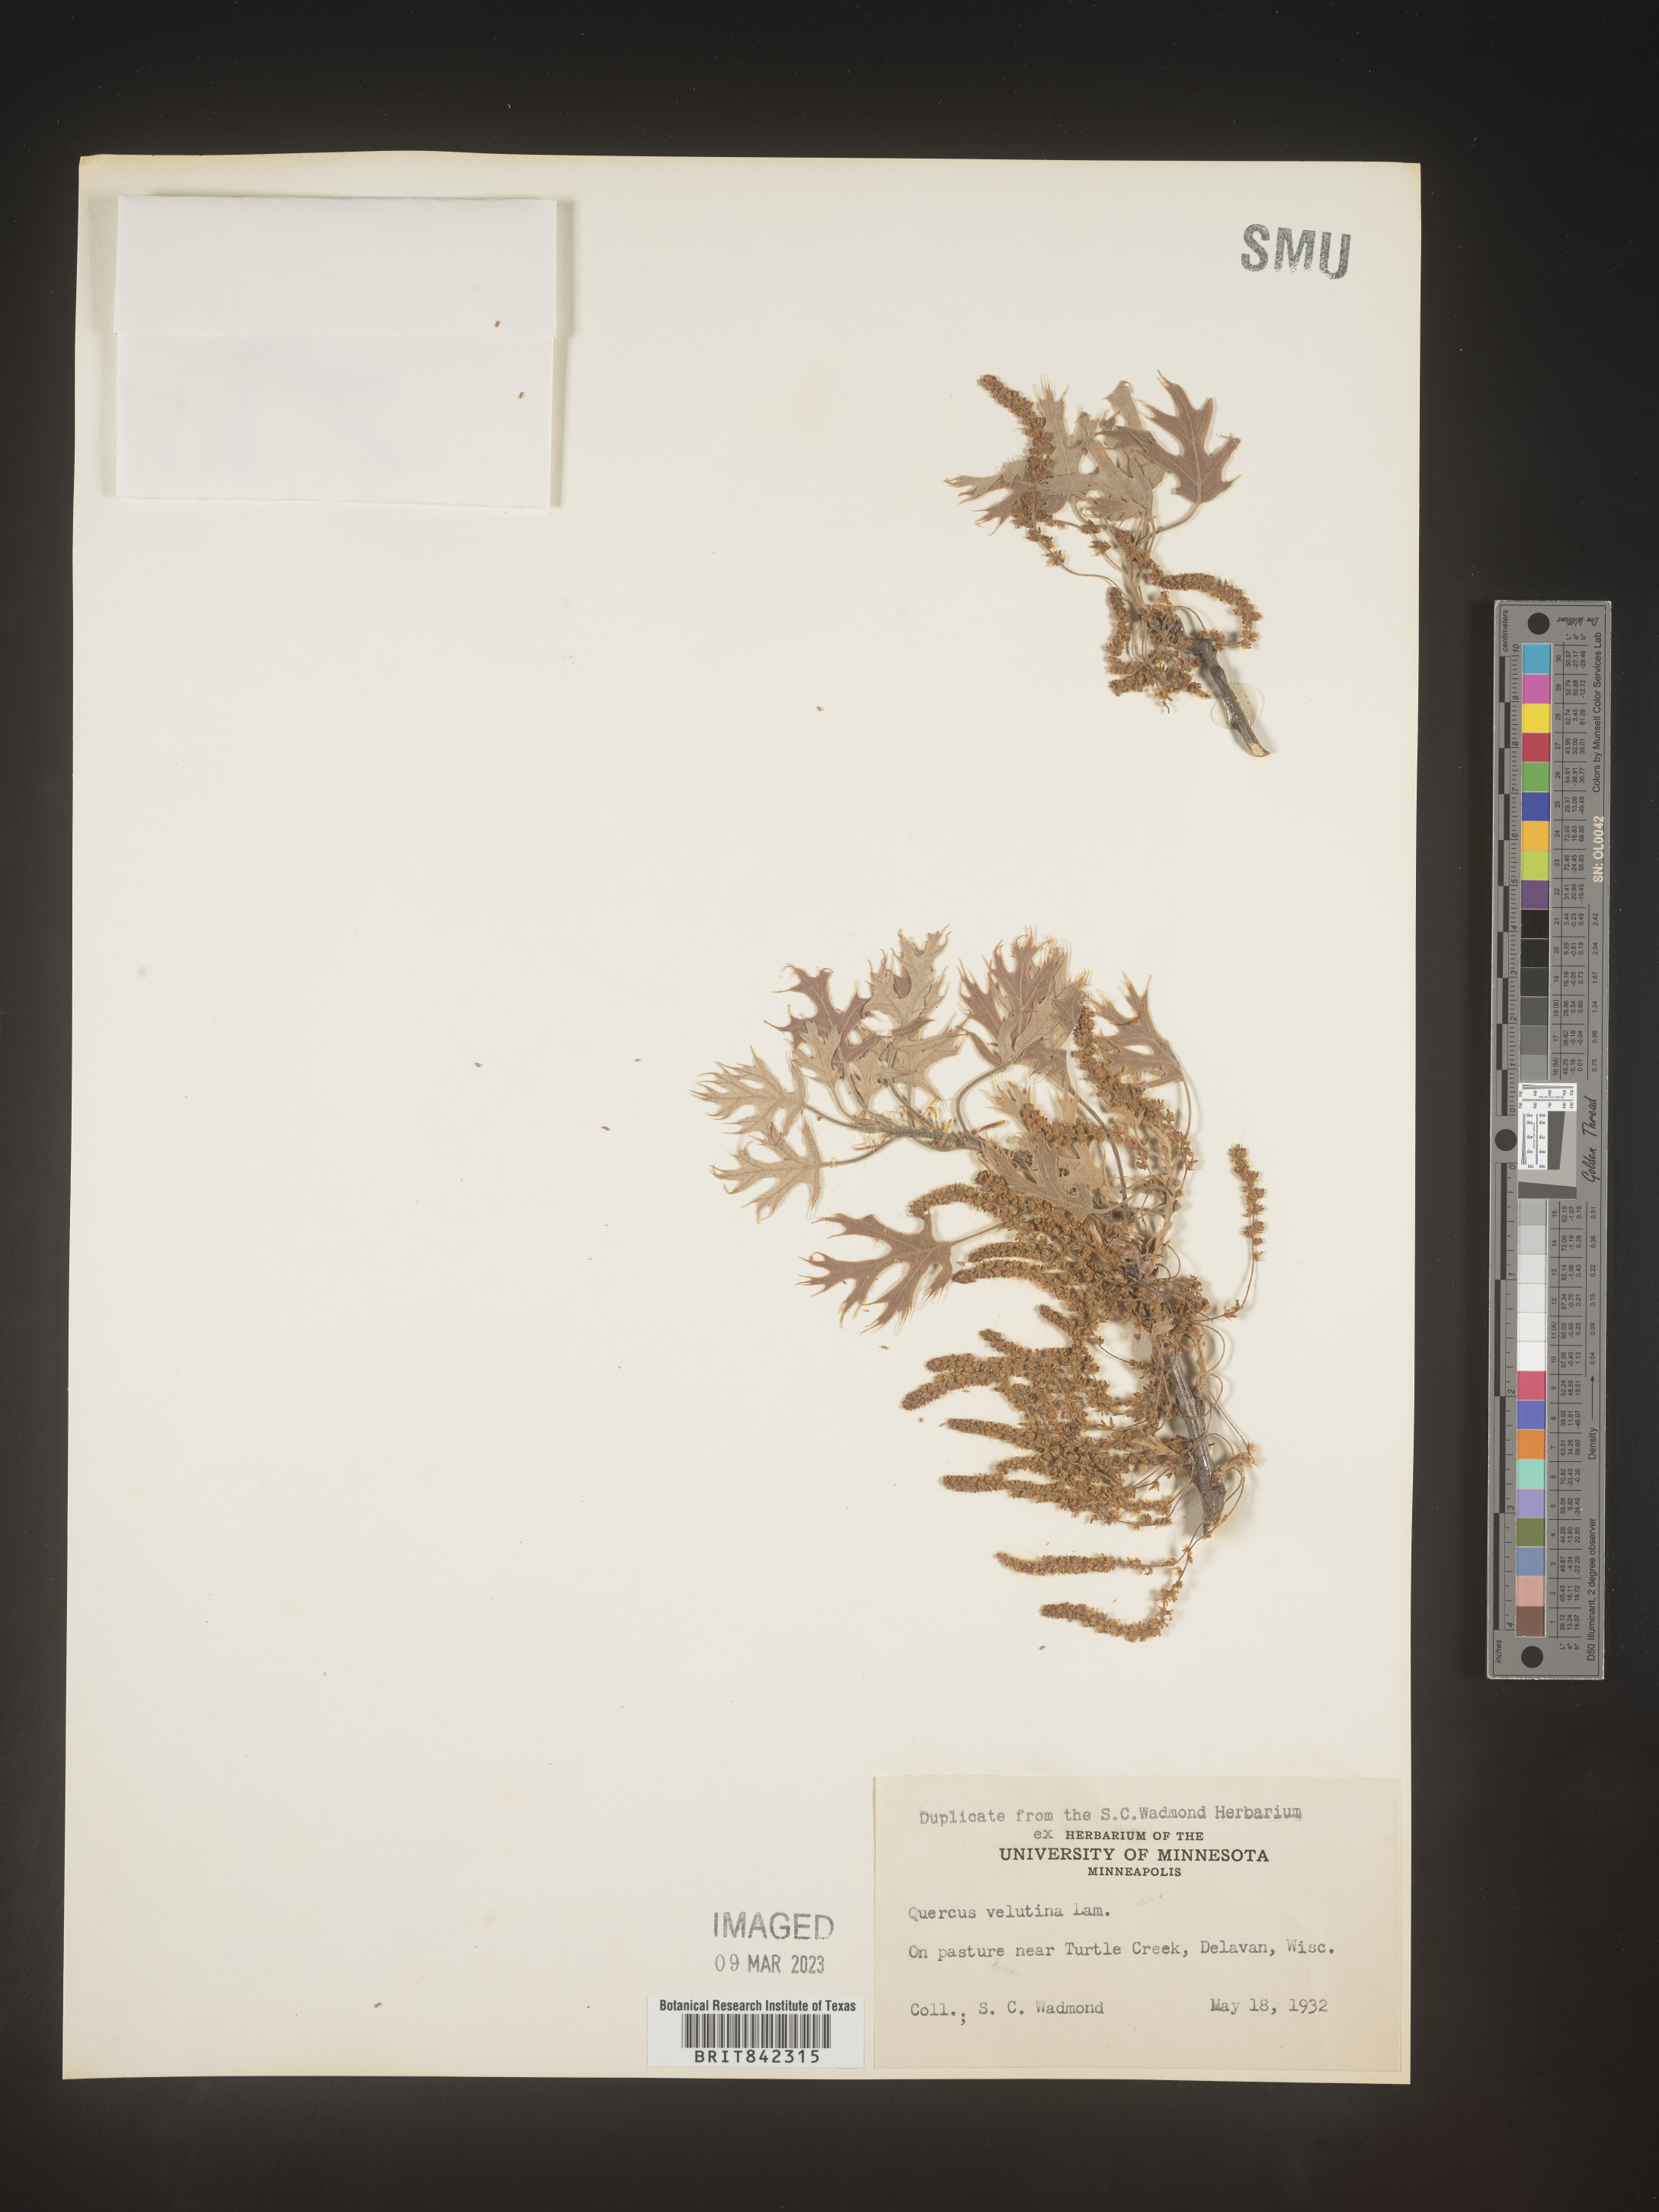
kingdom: Plantae
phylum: Tracheophyta
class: Magnoliopsida
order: Fagales
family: Fagaceae
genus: Quercus
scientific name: Quercus velutina
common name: Black oak
